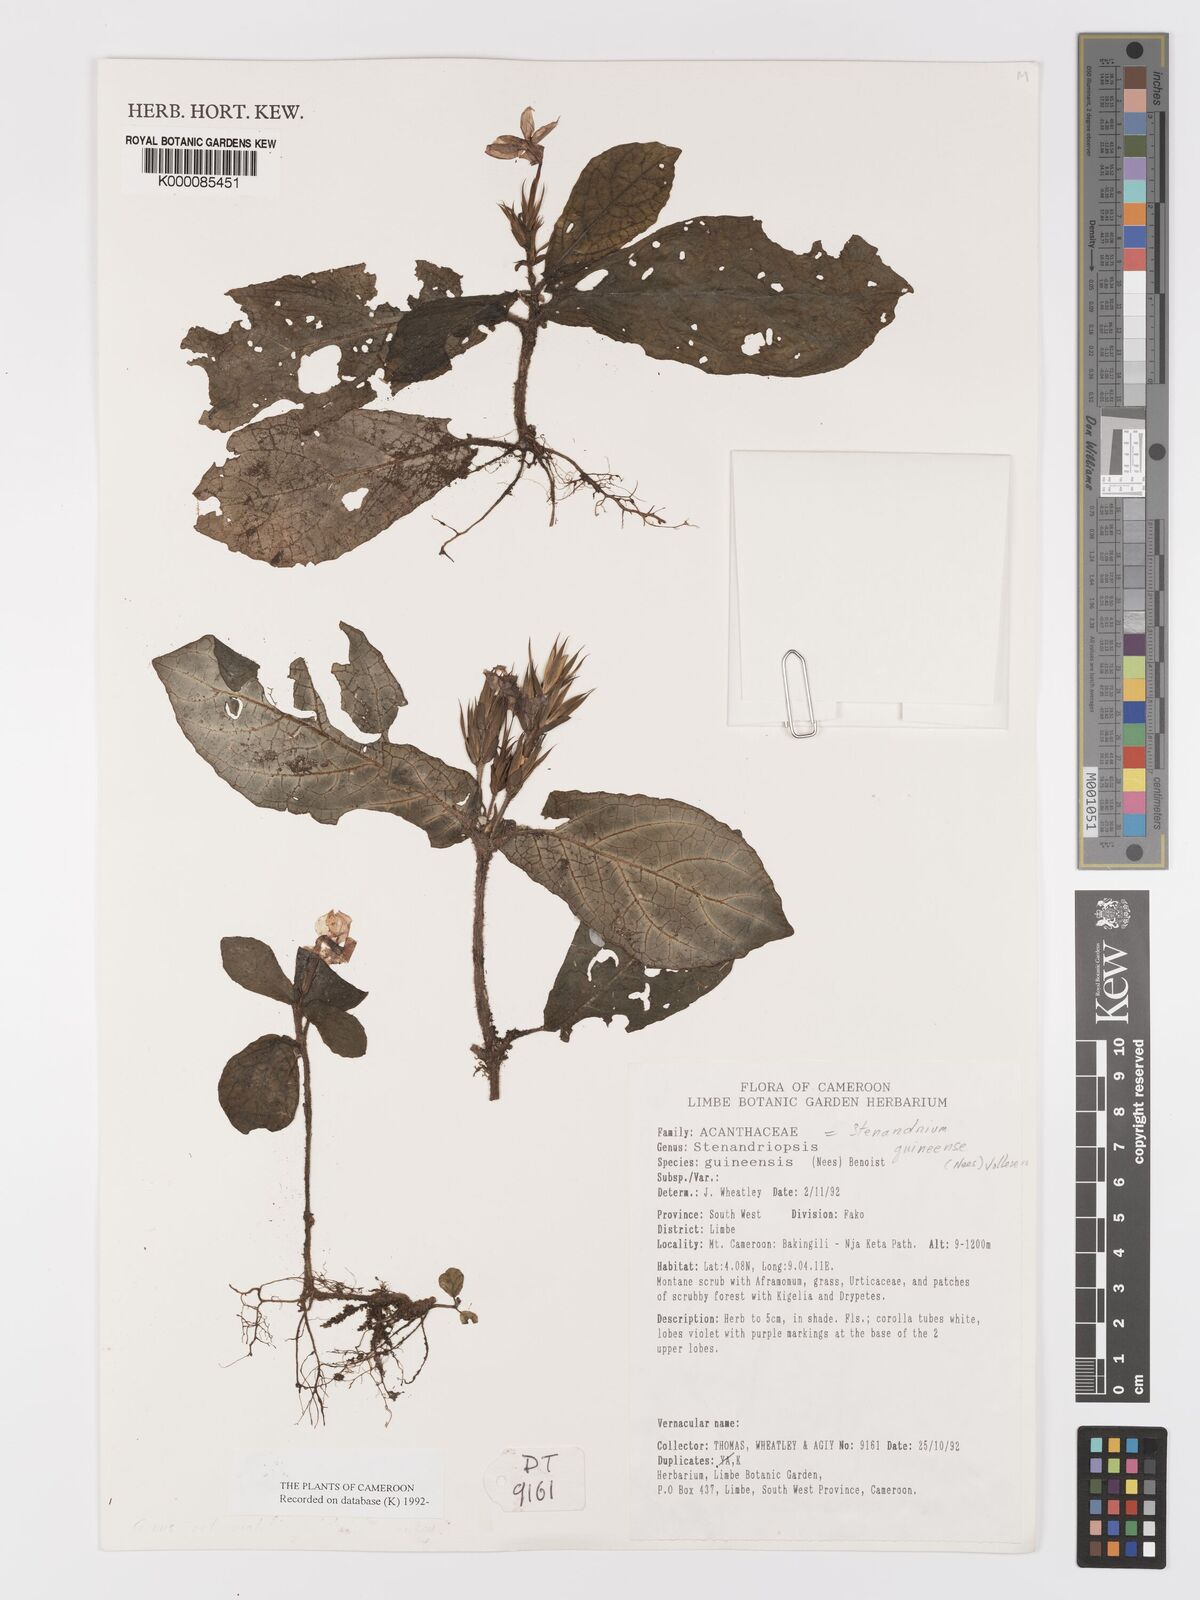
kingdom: Plantae
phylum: Tracheophyta
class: Magnoliopsida
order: Lamiales
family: Acanthaceae
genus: Stenandriopsis
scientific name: Stenandriopsis guineensis
